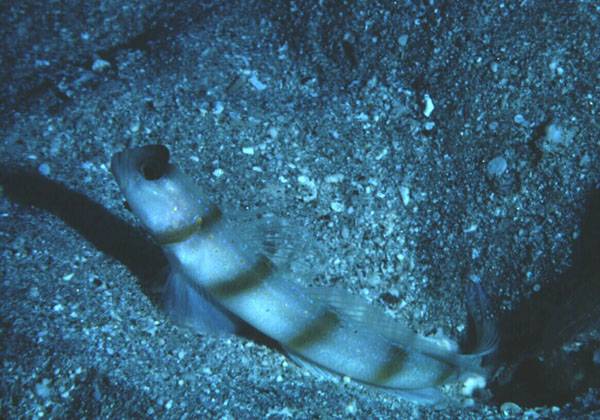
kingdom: Animalia
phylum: Chordata
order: Perciformes
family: Gobiidae
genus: Amblyeleotris
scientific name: Amblyeleotris sungami
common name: Magnus' prawn-goby
